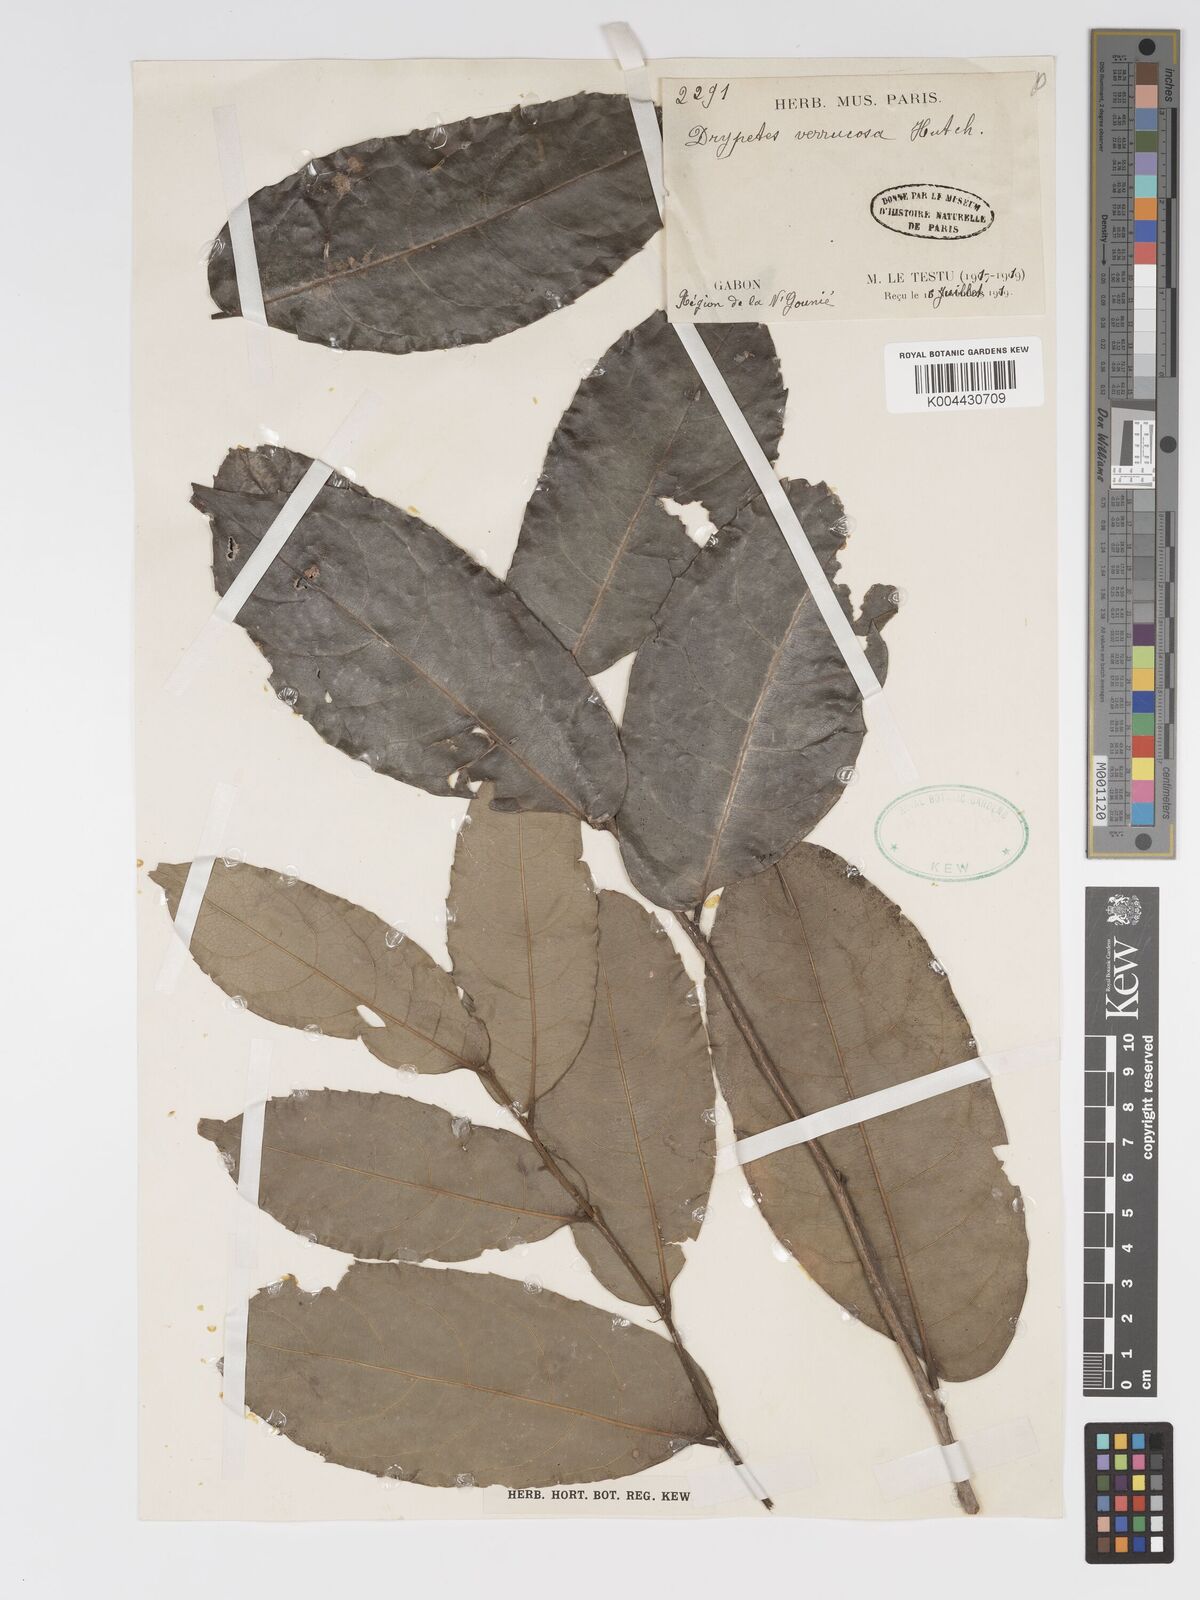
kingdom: Plantae
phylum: Tracheophyta
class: Magnoliopsida
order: Malpighiales
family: Putranjivaceae
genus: Drypetes
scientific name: Drypetes verrucosa
